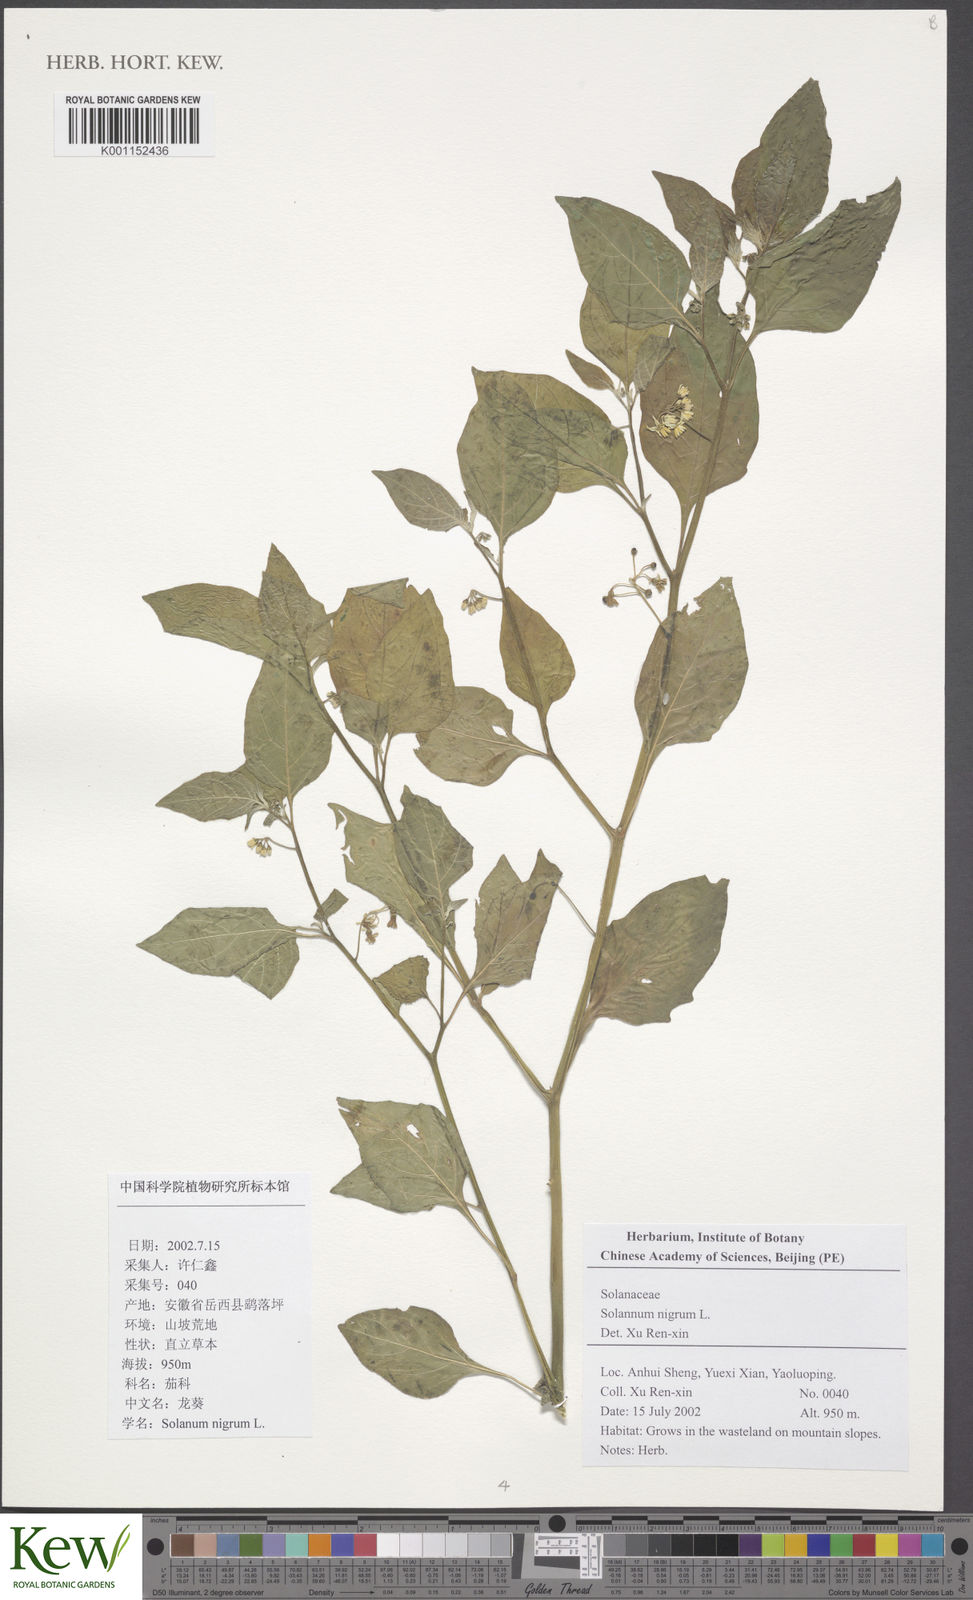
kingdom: Plantae
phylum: Tracheophyta
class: Magnoliopsida
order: Solanales
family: Solanaceae
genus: Solanum
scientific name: Solanum americanum
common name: American black nightshade
